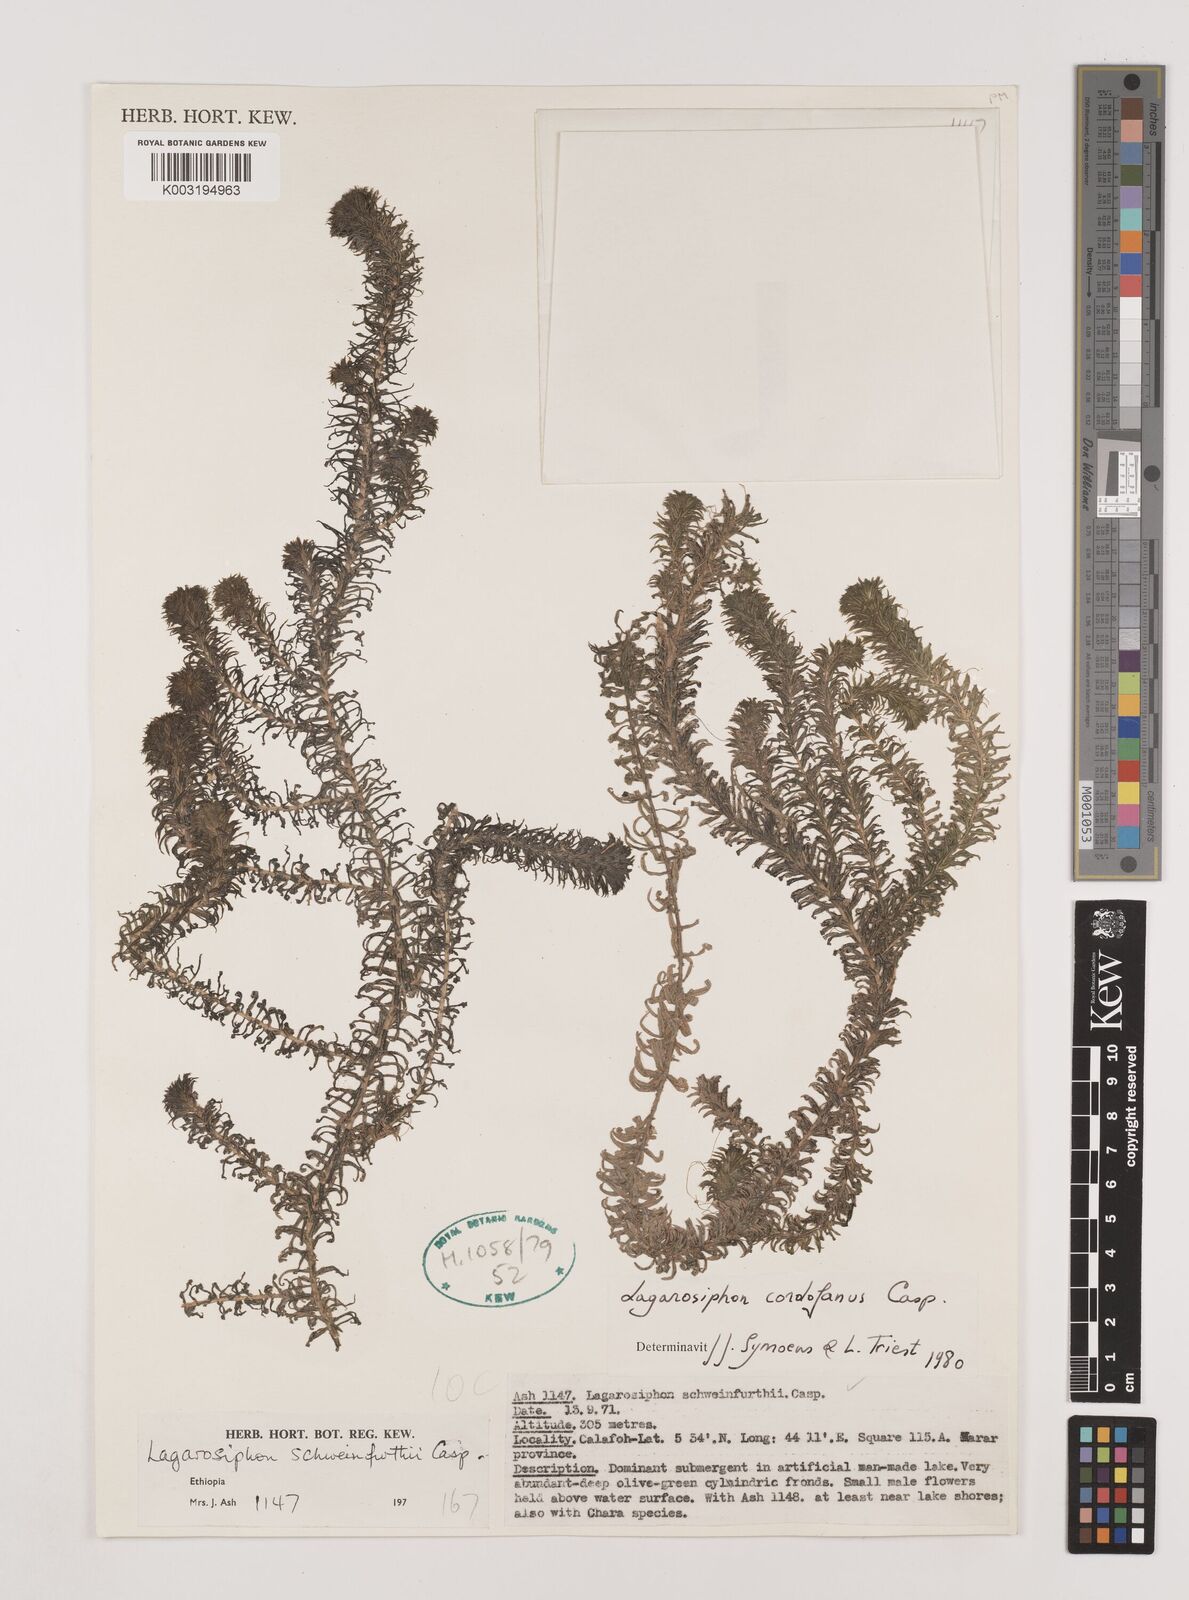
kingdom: Plantae
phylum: Tracheophyta
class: Liliopsida
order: Alismatales
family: Hydrocharitaceae
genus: Lagarosiphon
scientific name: Lagarosiphon cordofanus
